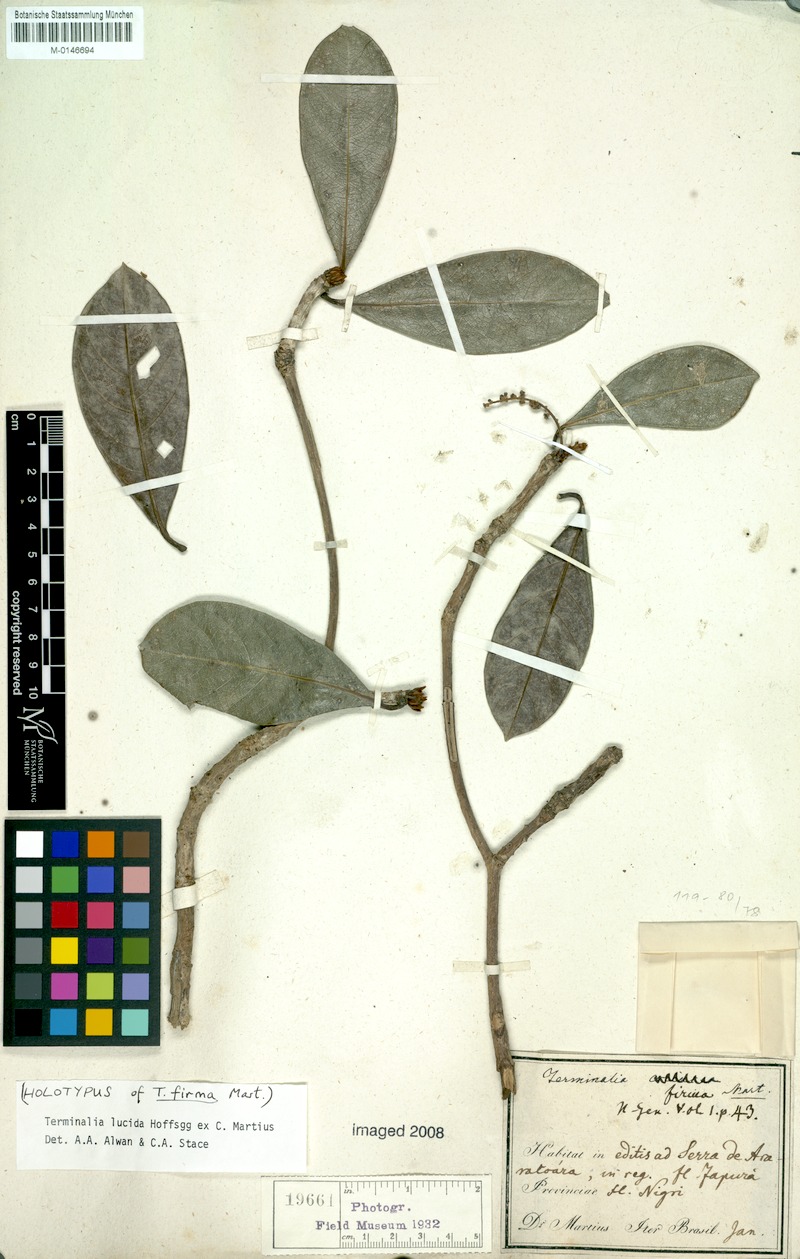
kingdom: Plantae
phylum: Tracheophyta
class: Magnoliopsida
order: Myrtales
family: Combretaceae
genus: Terminalia
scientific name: Terminalia lucida
